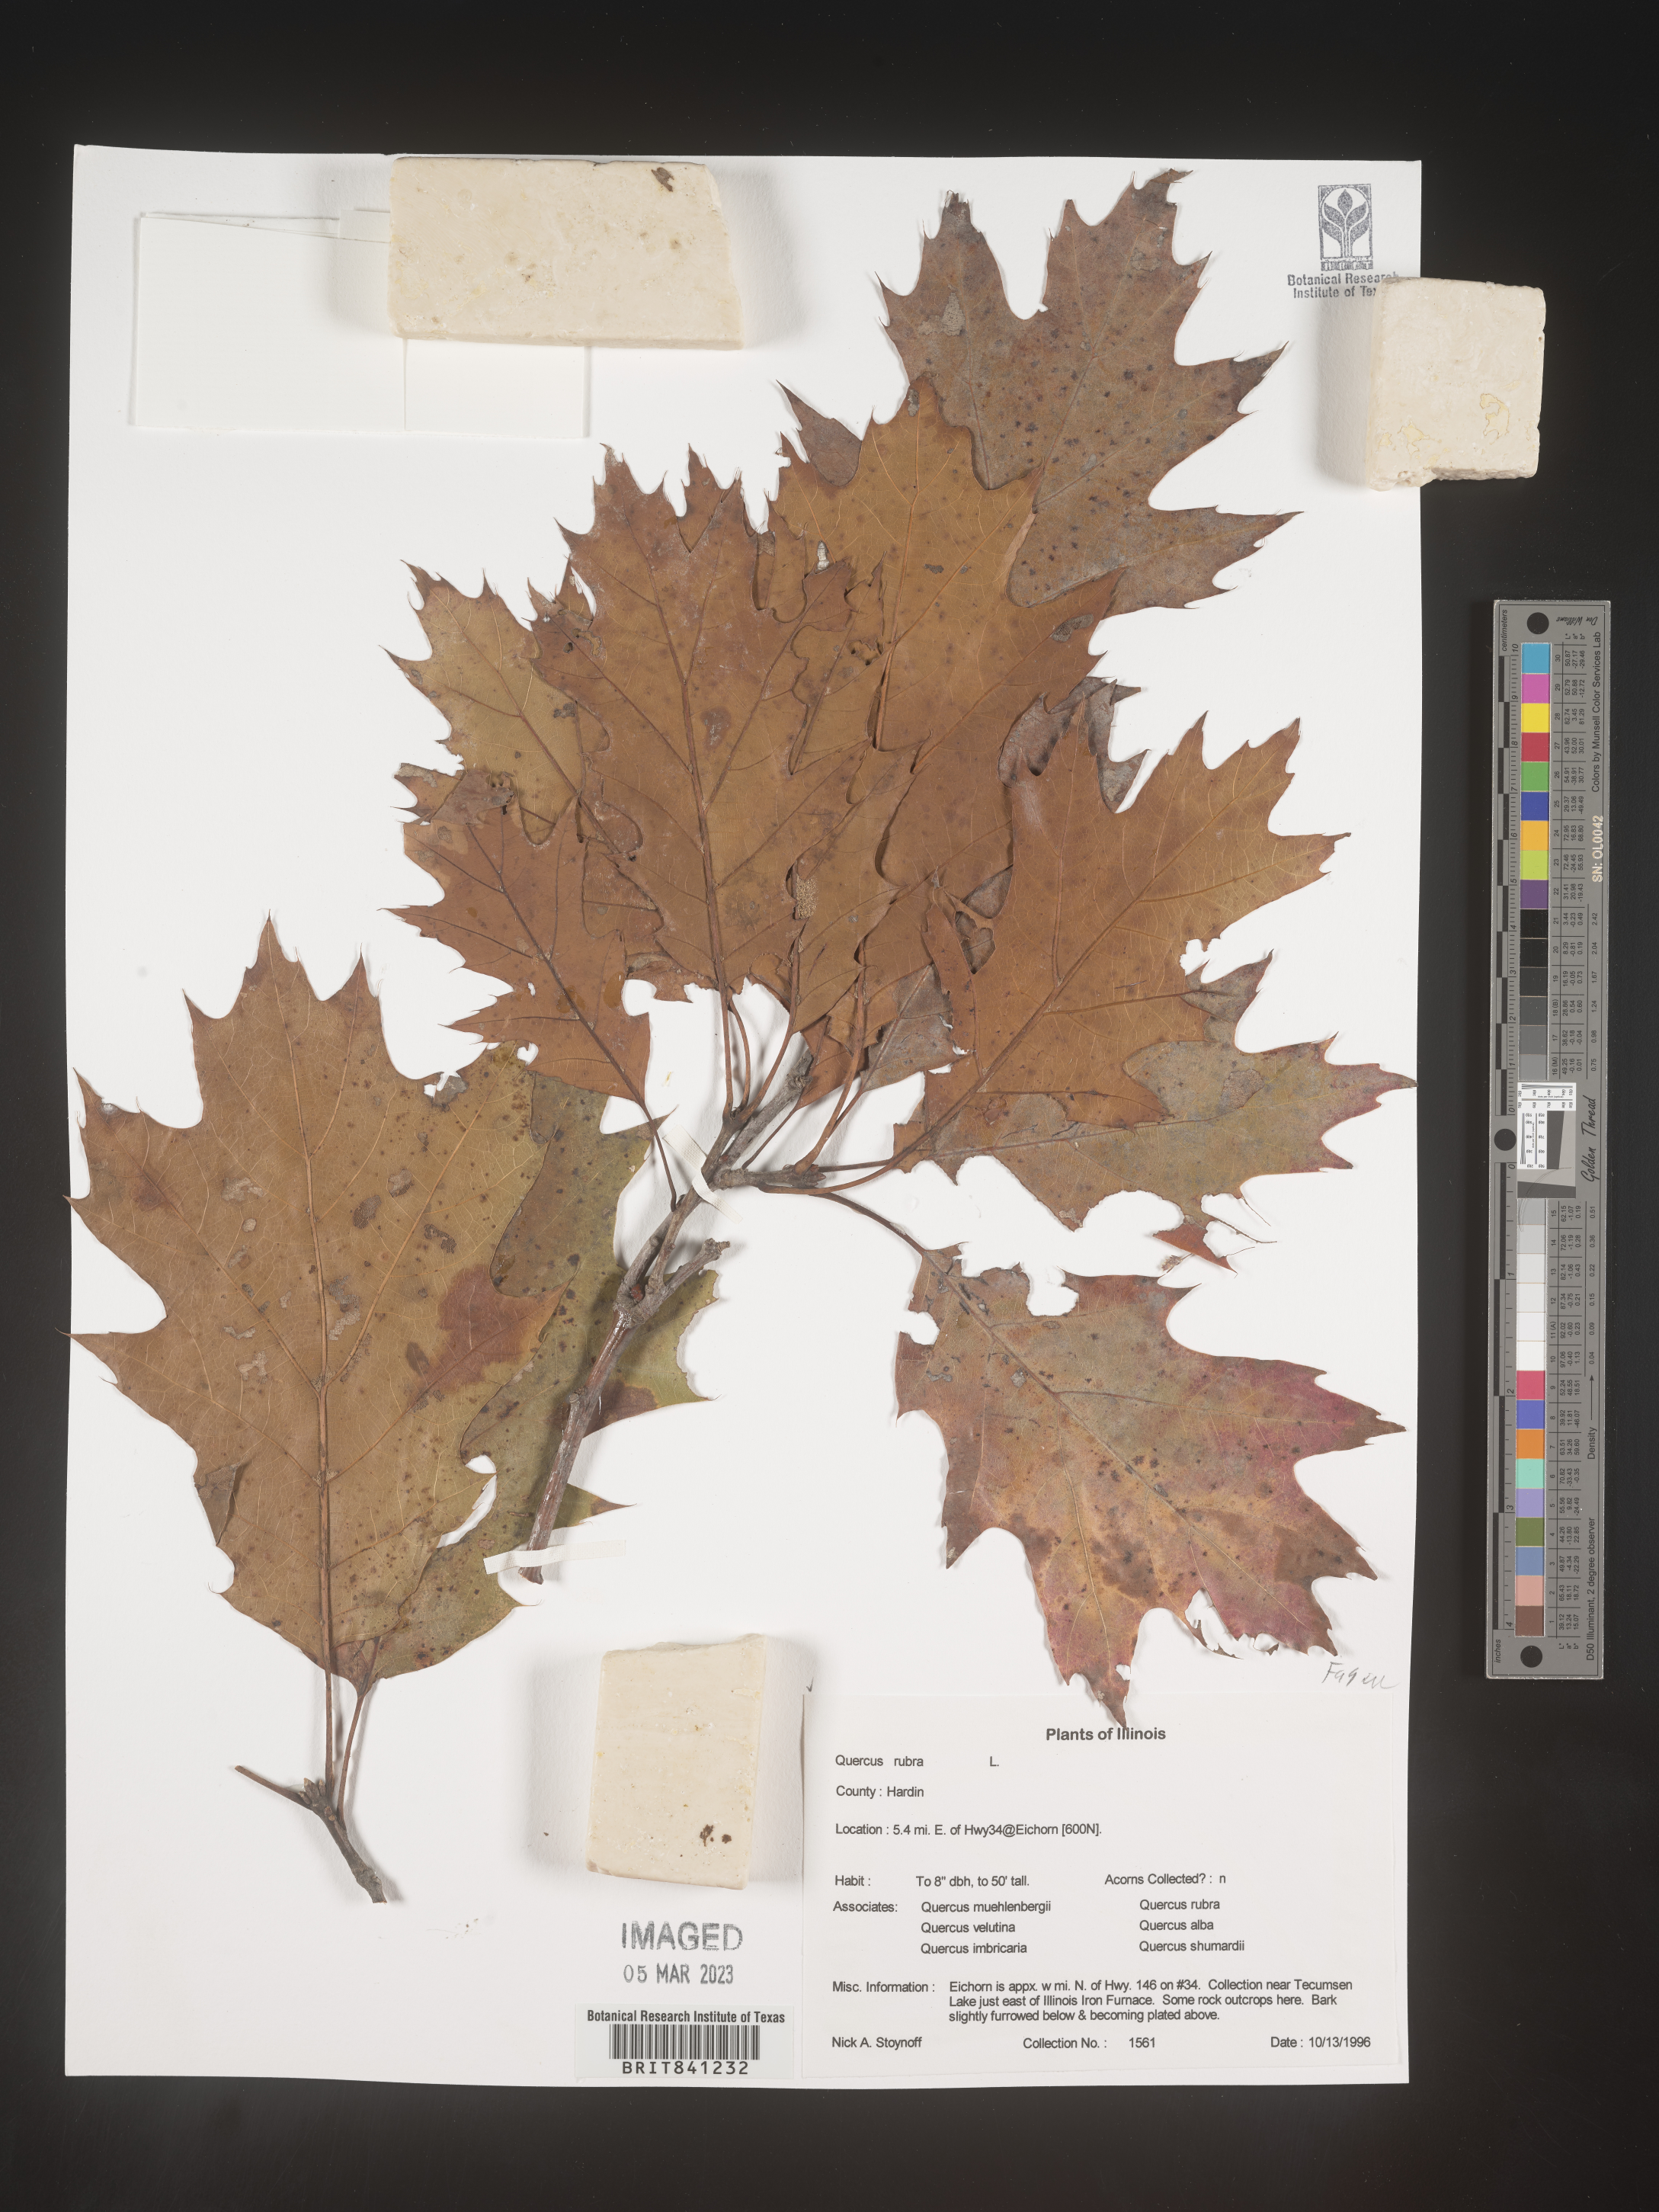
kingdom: Plantae
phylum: Tracheophyta
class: Magnoliopsida
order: Fagales
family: Fagaceae
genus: Quercus
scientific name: Quercus rubra
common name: Red oak
